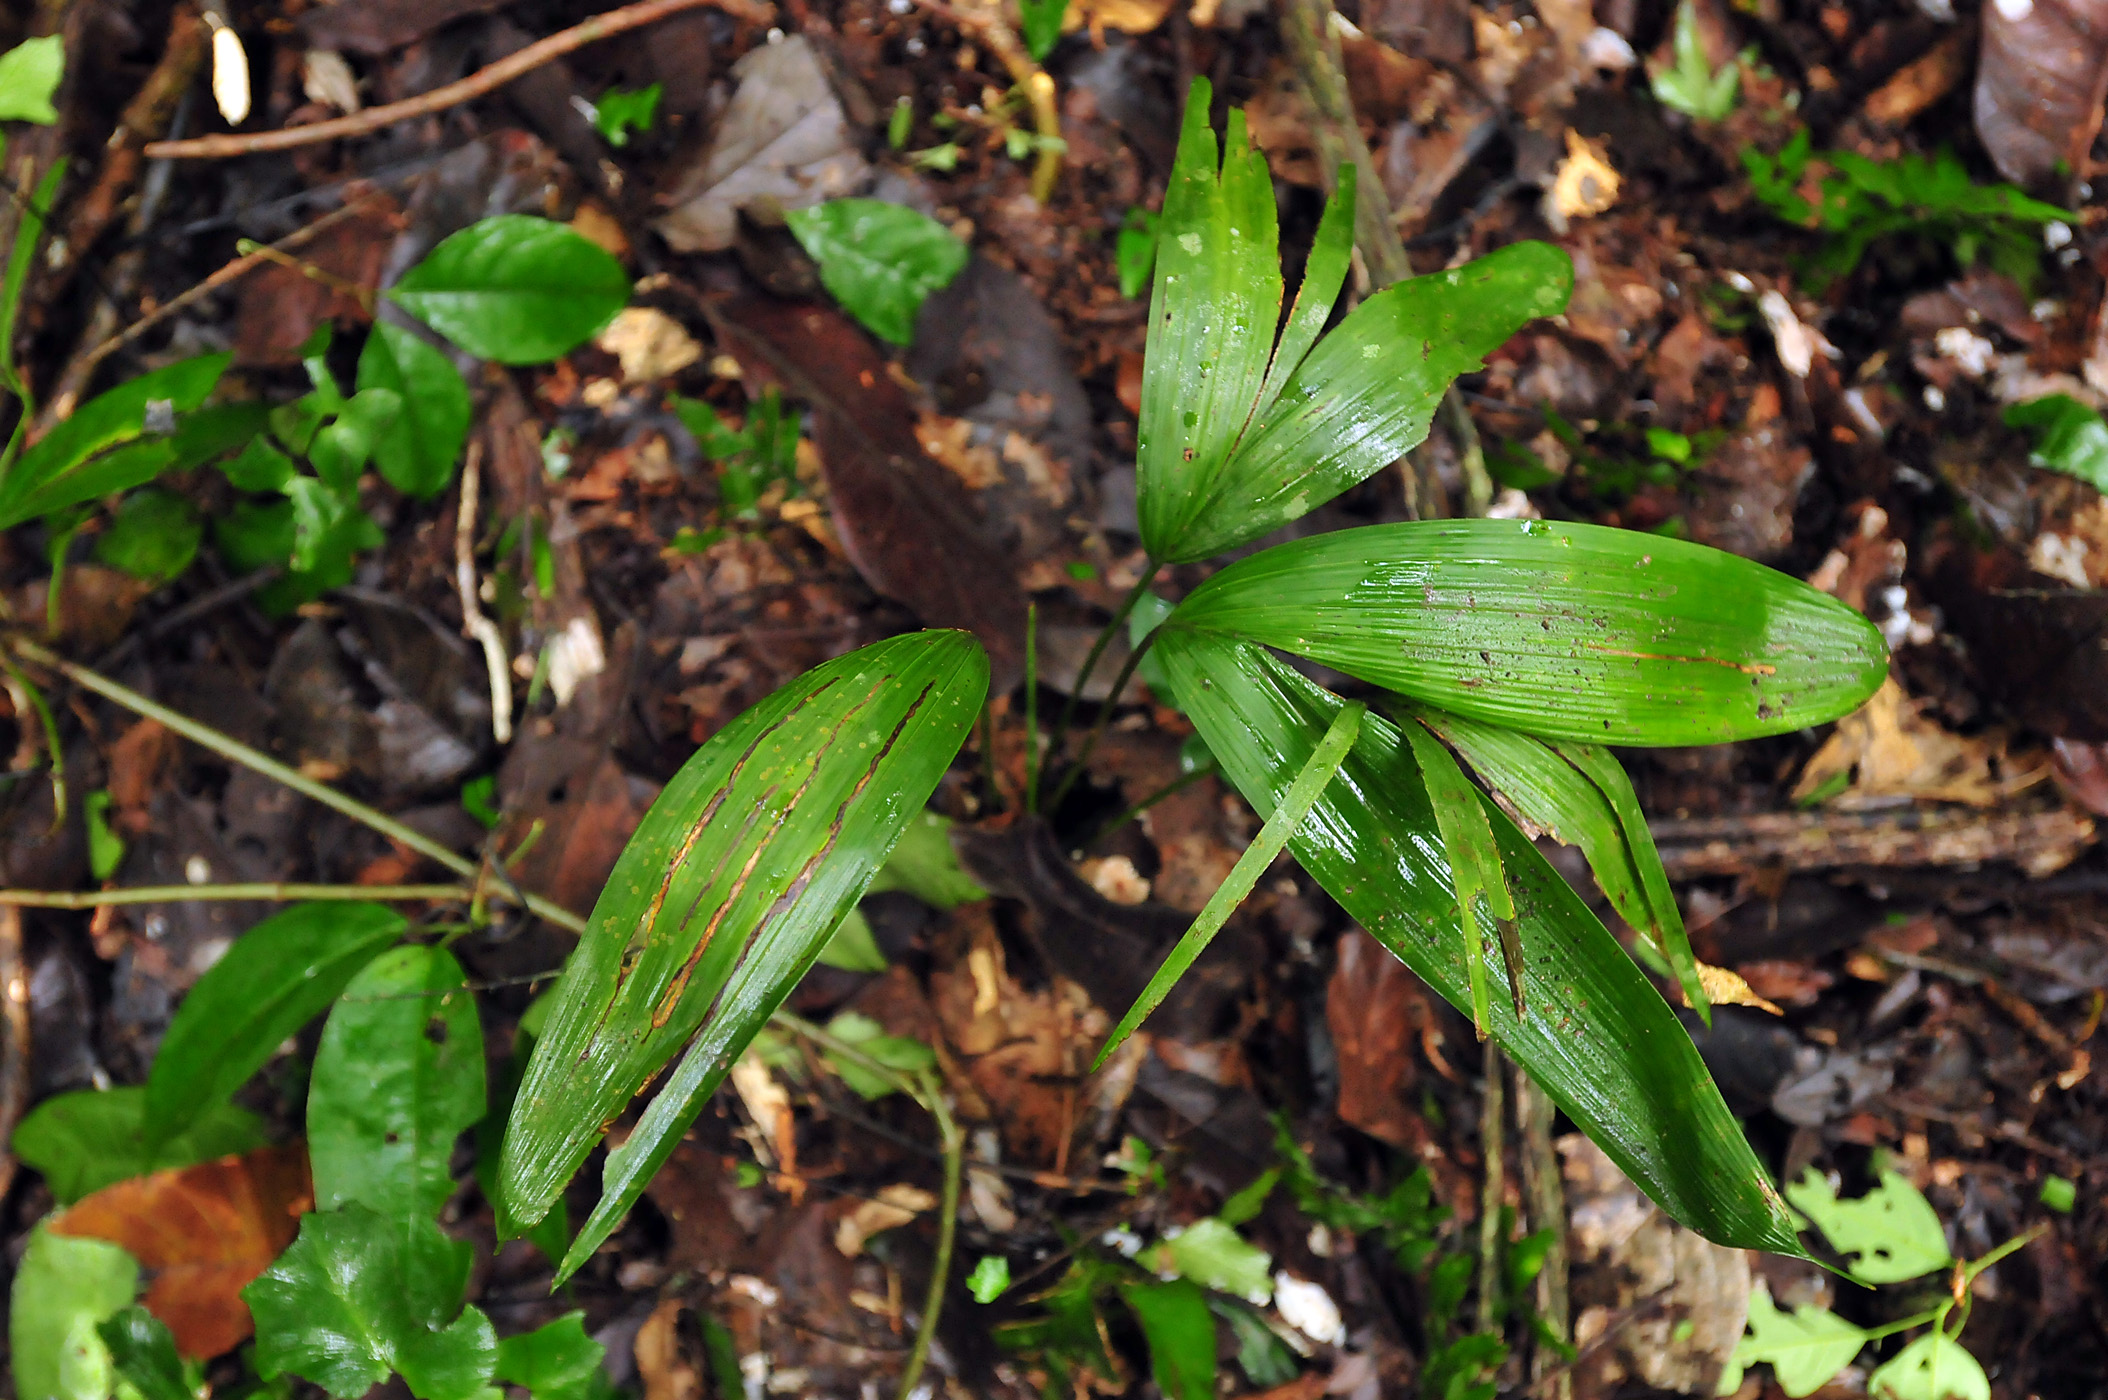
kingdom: Plantae
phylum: Tracheophyta
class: Liliopsida
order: Arecales
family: Arecaceae
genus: Oenocarpus
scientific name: Oenocarpus bataua
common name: Bataua palm
